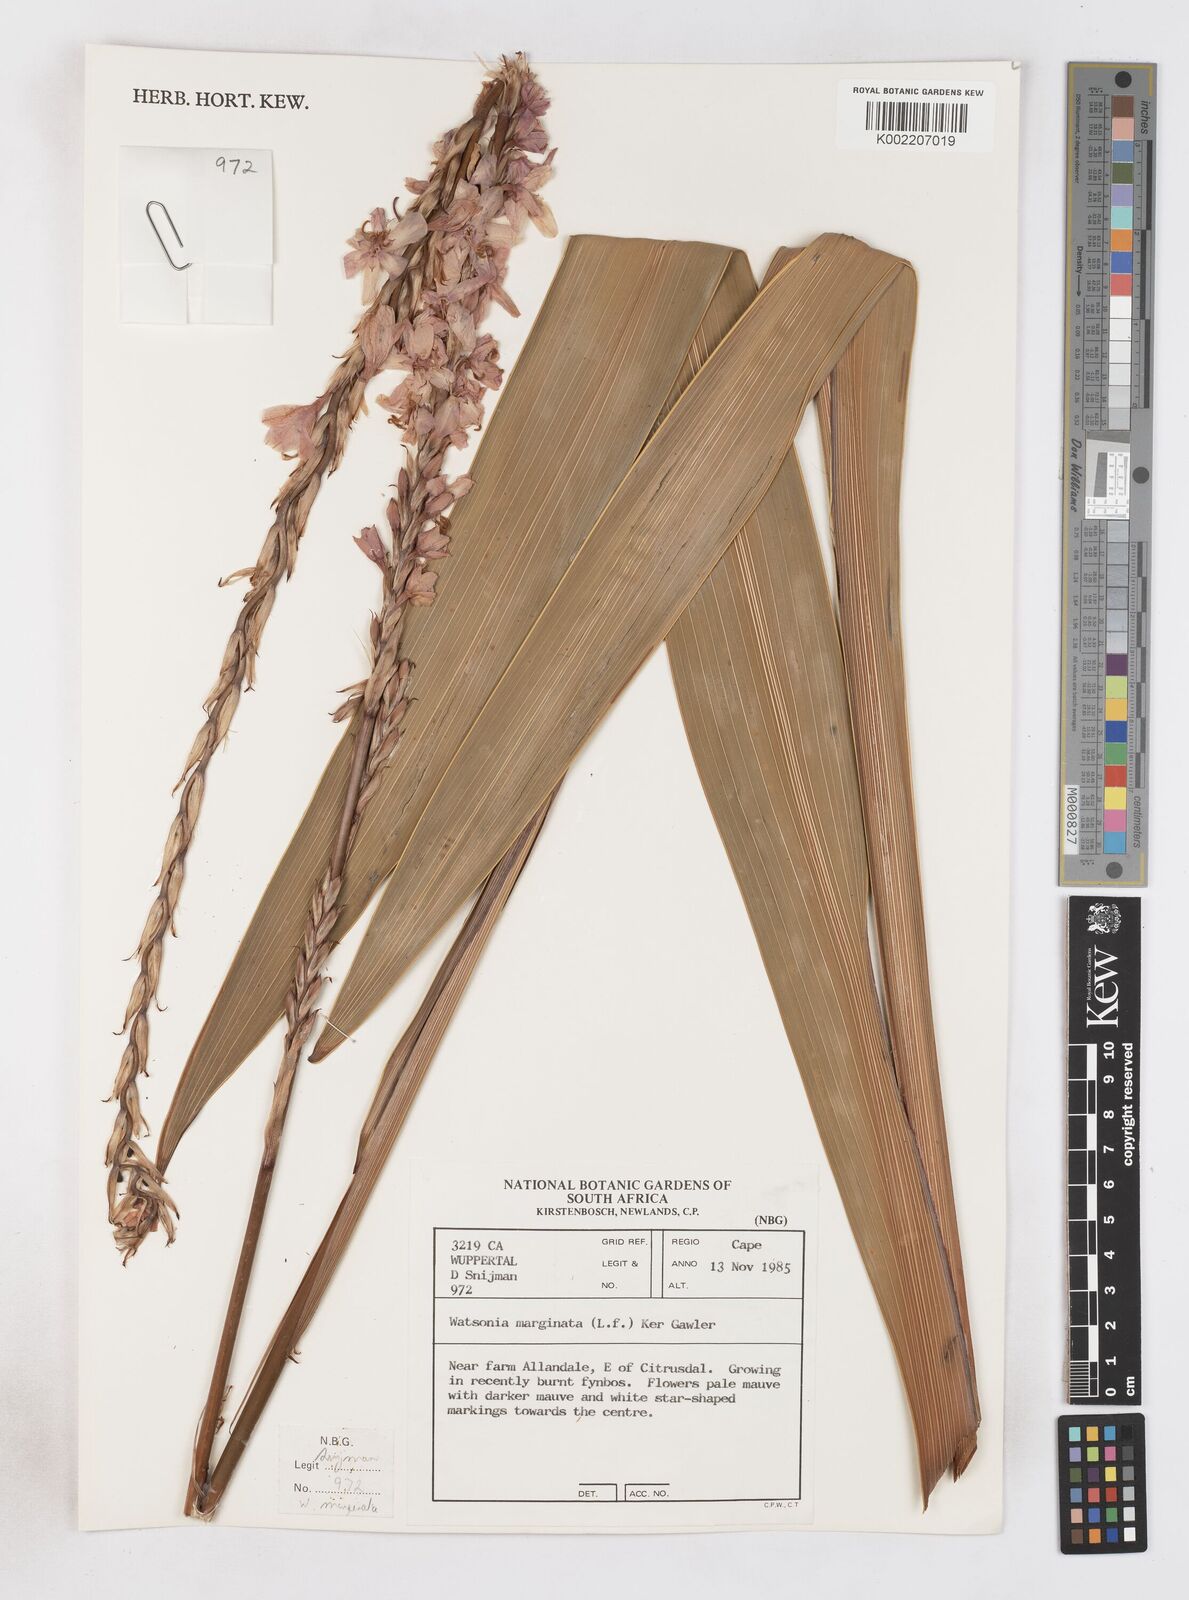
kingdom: Plantae
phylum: Tracheophyta
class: Liliopsida
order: Asparagales
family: Iridaceae
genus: Watsonia
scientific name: Watsonia marginata
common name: Fragrant bugle-lily
